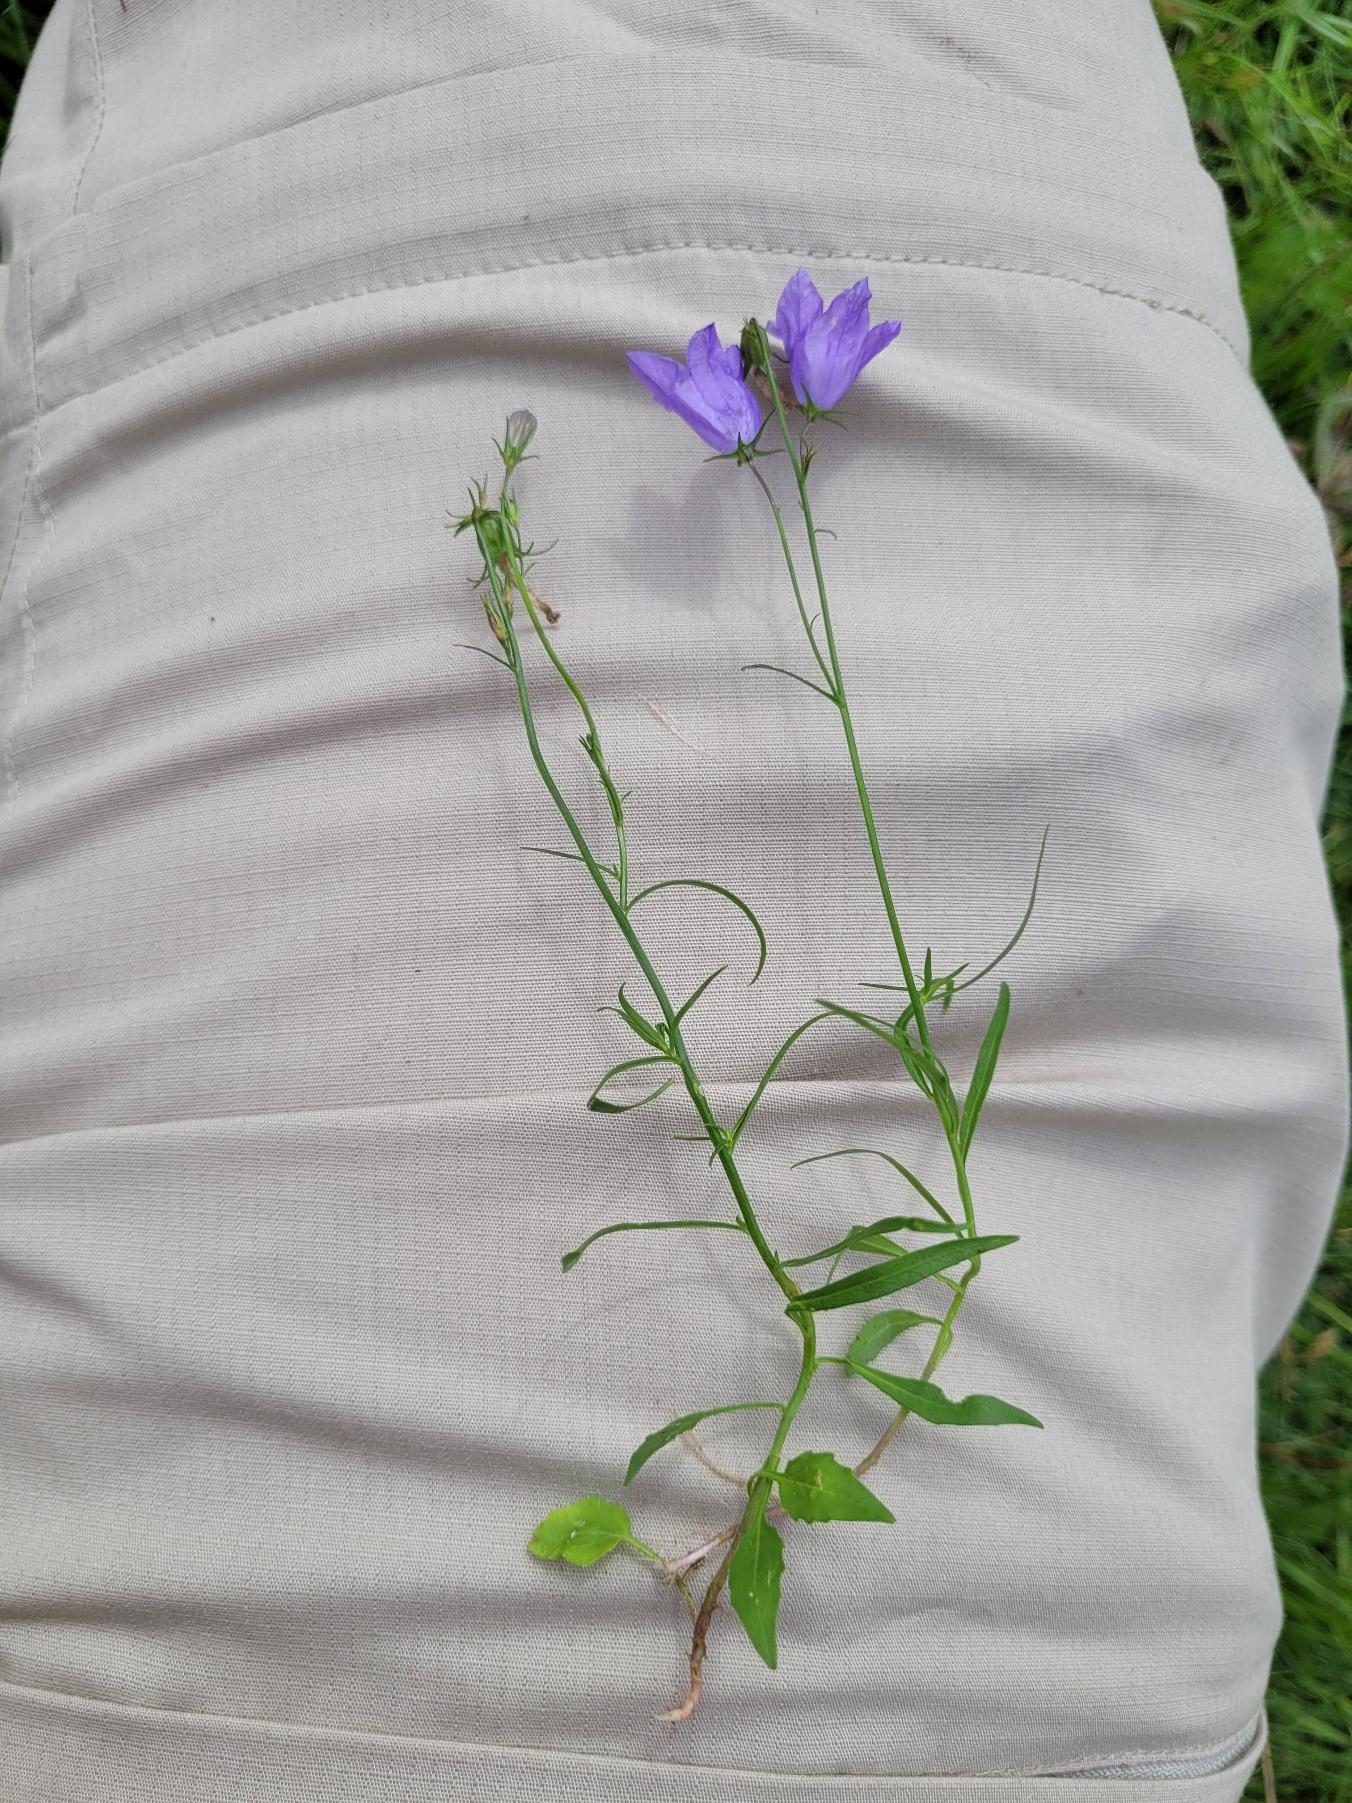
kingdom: Plantae
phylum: Tracheophyta
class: Magnoliopsida
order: Asterales
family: Campanulaceae
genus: Campanula
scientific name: Campanula rotundifolia
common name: Liden klokke
